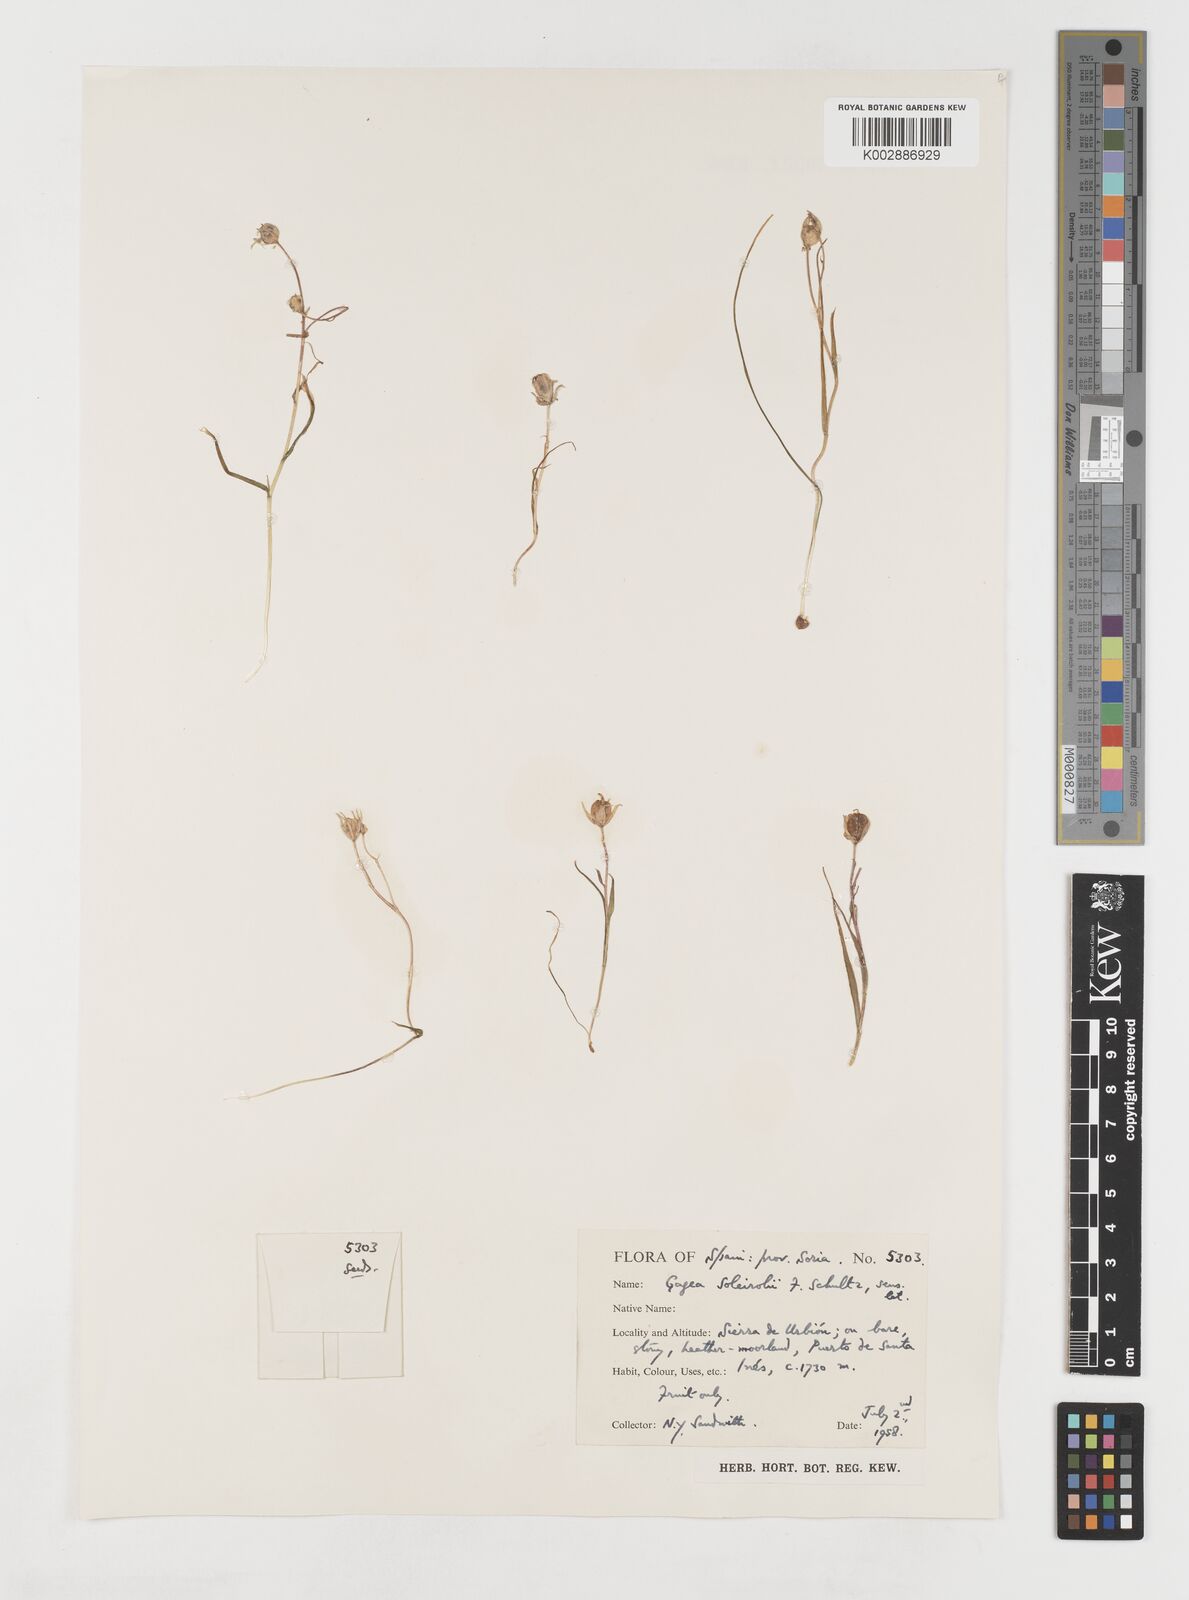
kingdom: Plantae
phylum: Tracheophyta
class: Liliopsida
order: Liliales
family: Liliaceae
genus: Gagea
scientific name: Gagea soleirolii
